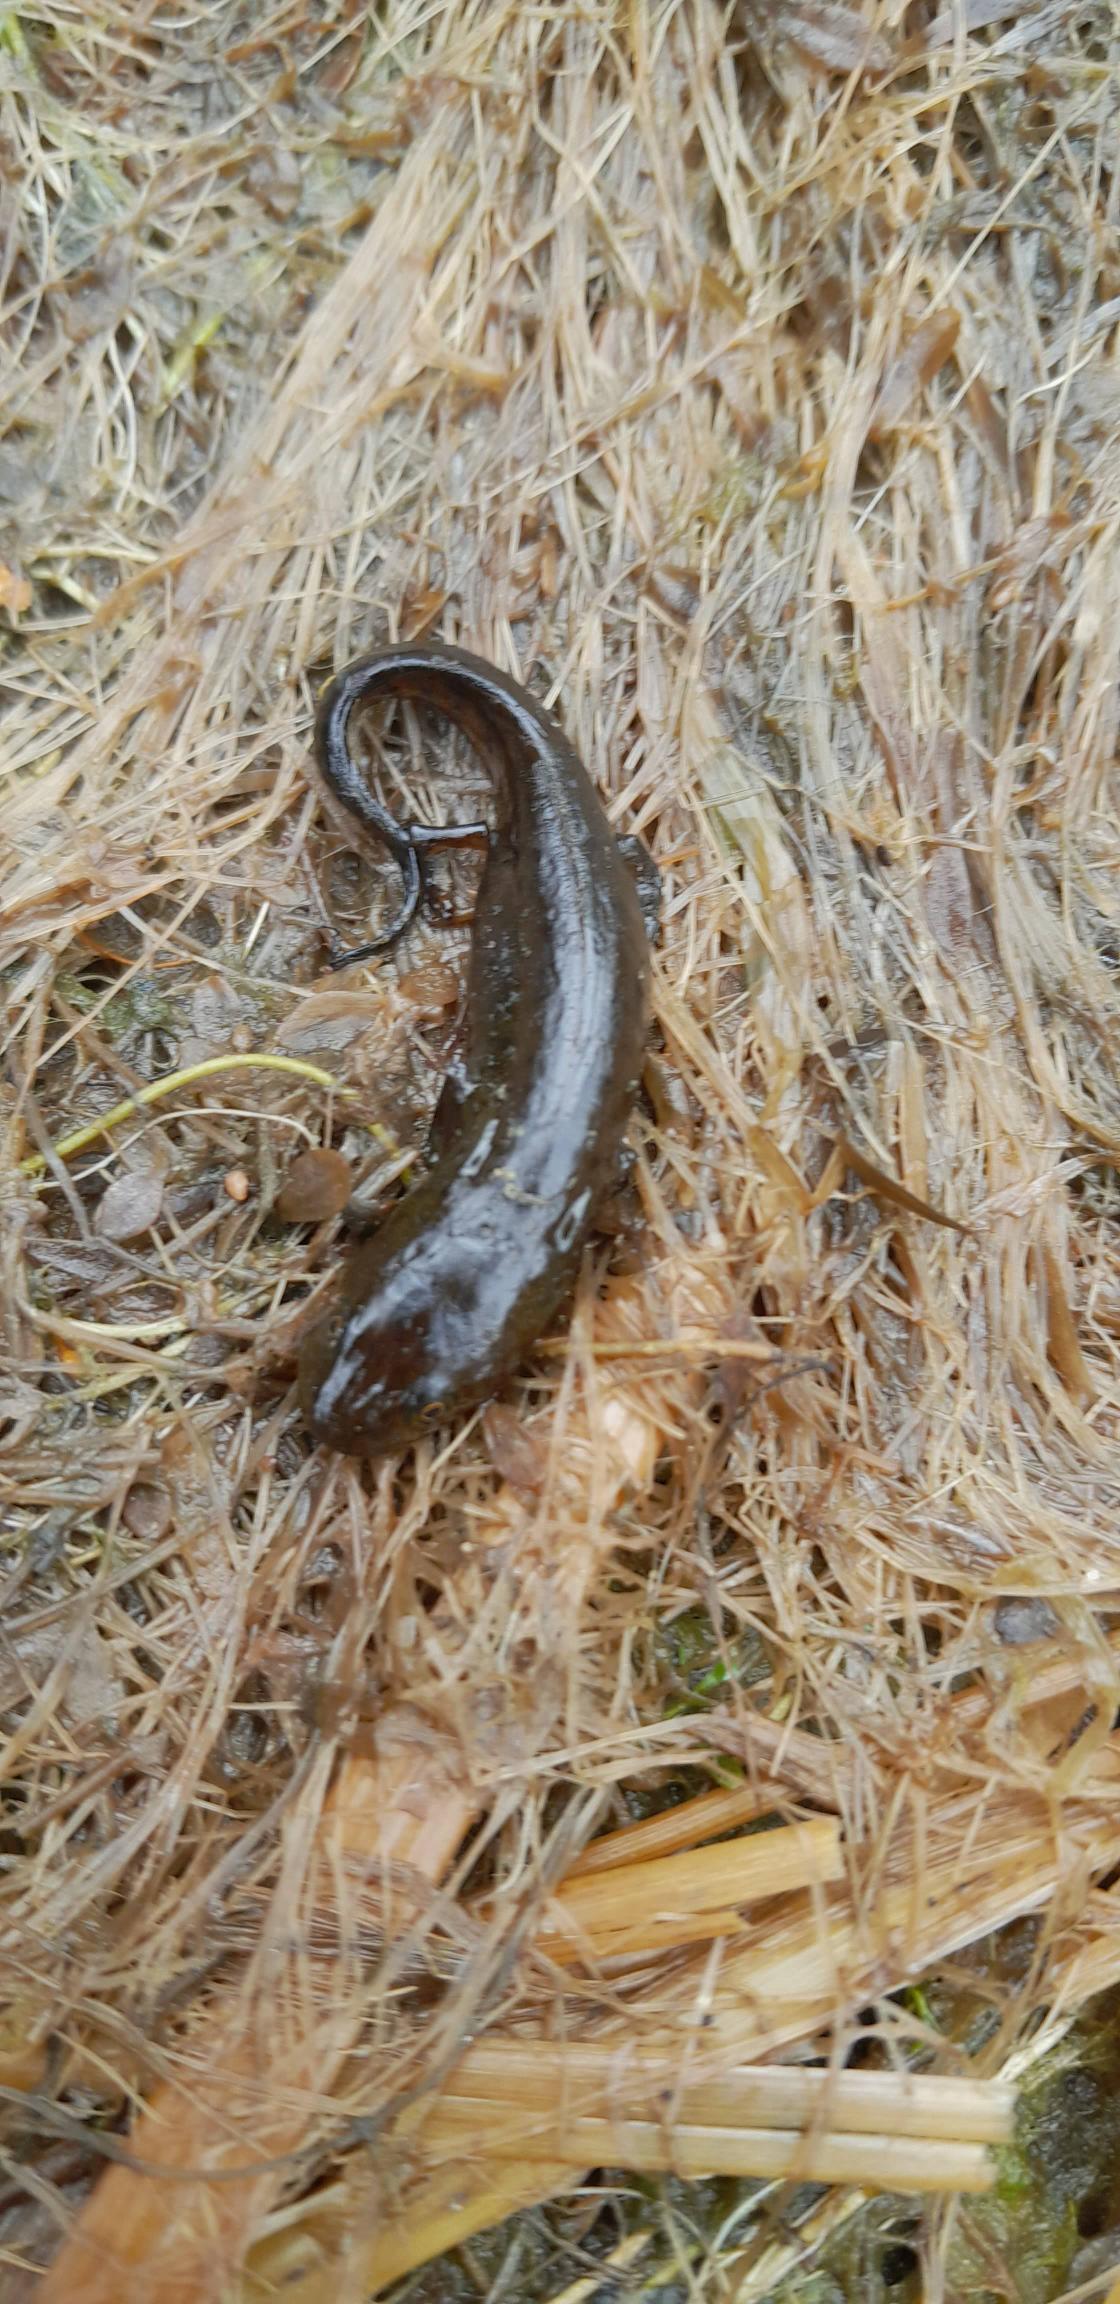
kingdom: Animalia
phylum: Chordata
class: Amphibia
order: Caudata
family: Salamandridae
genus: Lissotriton
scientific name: Lissotriton vulgaris
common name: Lille vandsalamander
